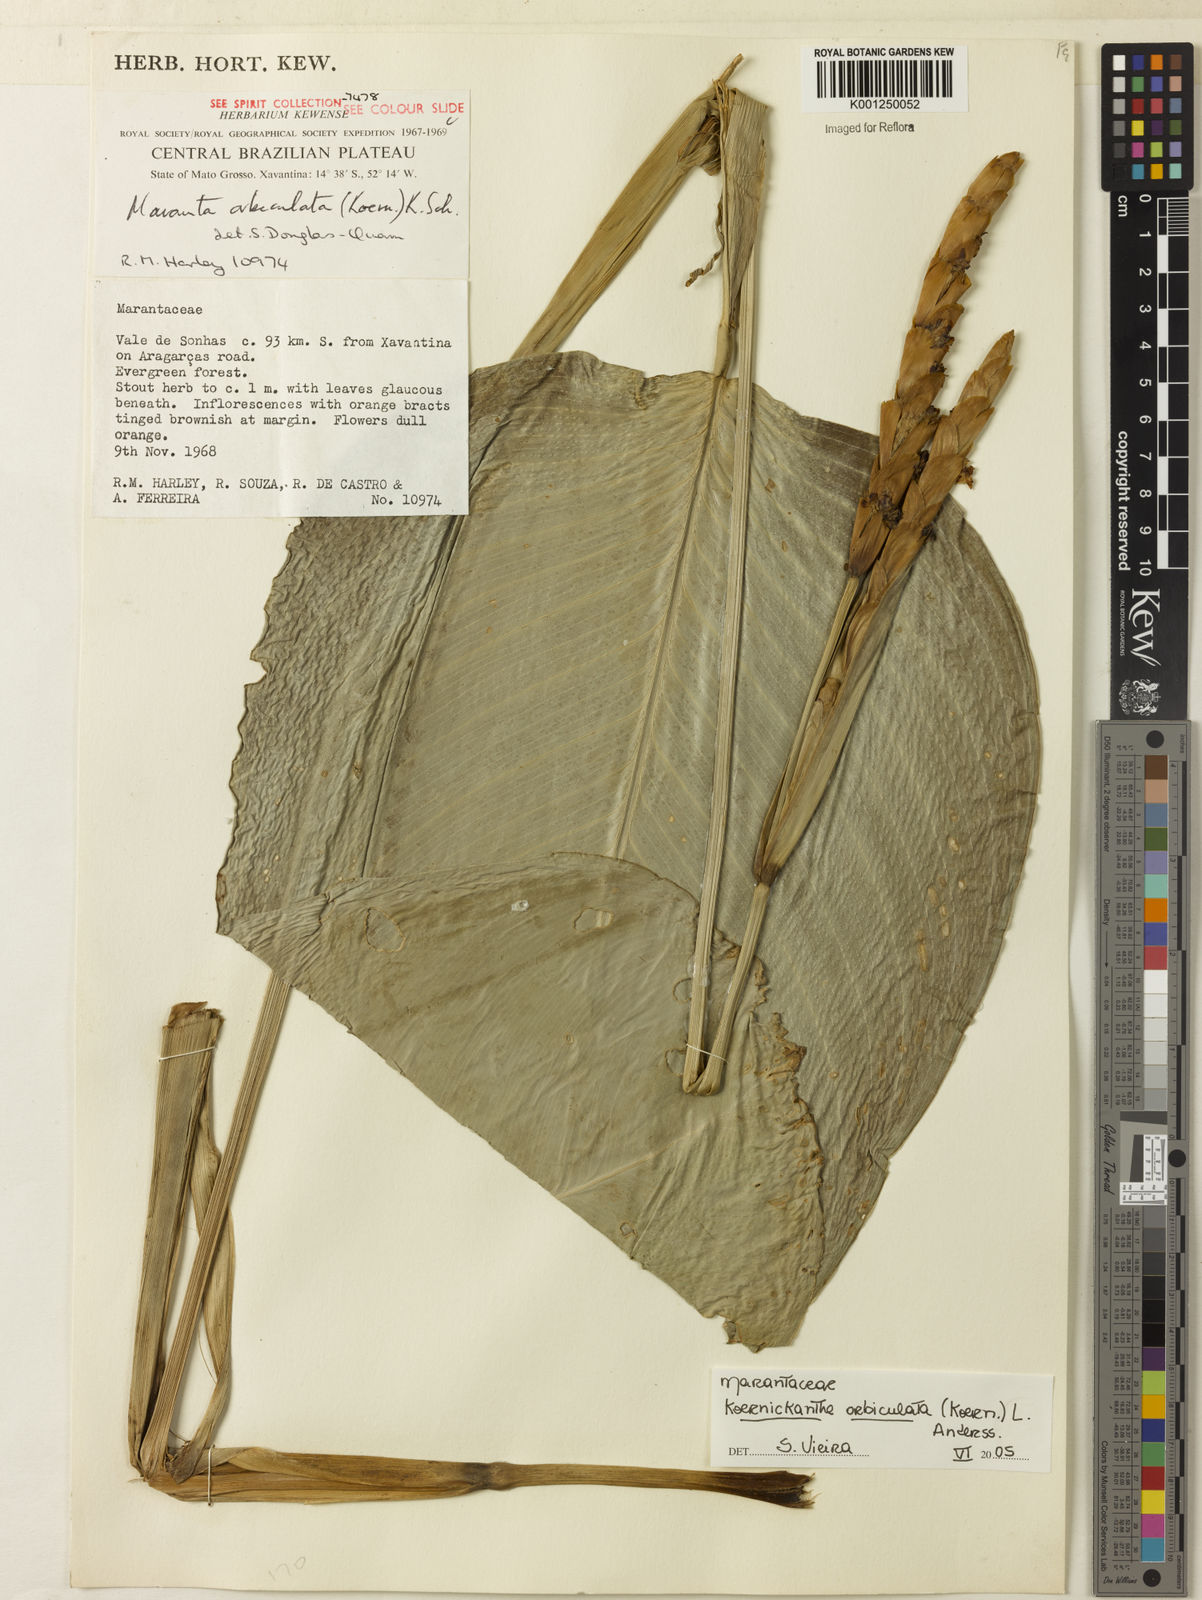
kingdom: Plantae
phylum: Tracheophyta
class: Liliopsida
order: Zingiberales
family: Marantaceae
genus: Koernickanthe
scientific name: Koernickanthe orbiculata
